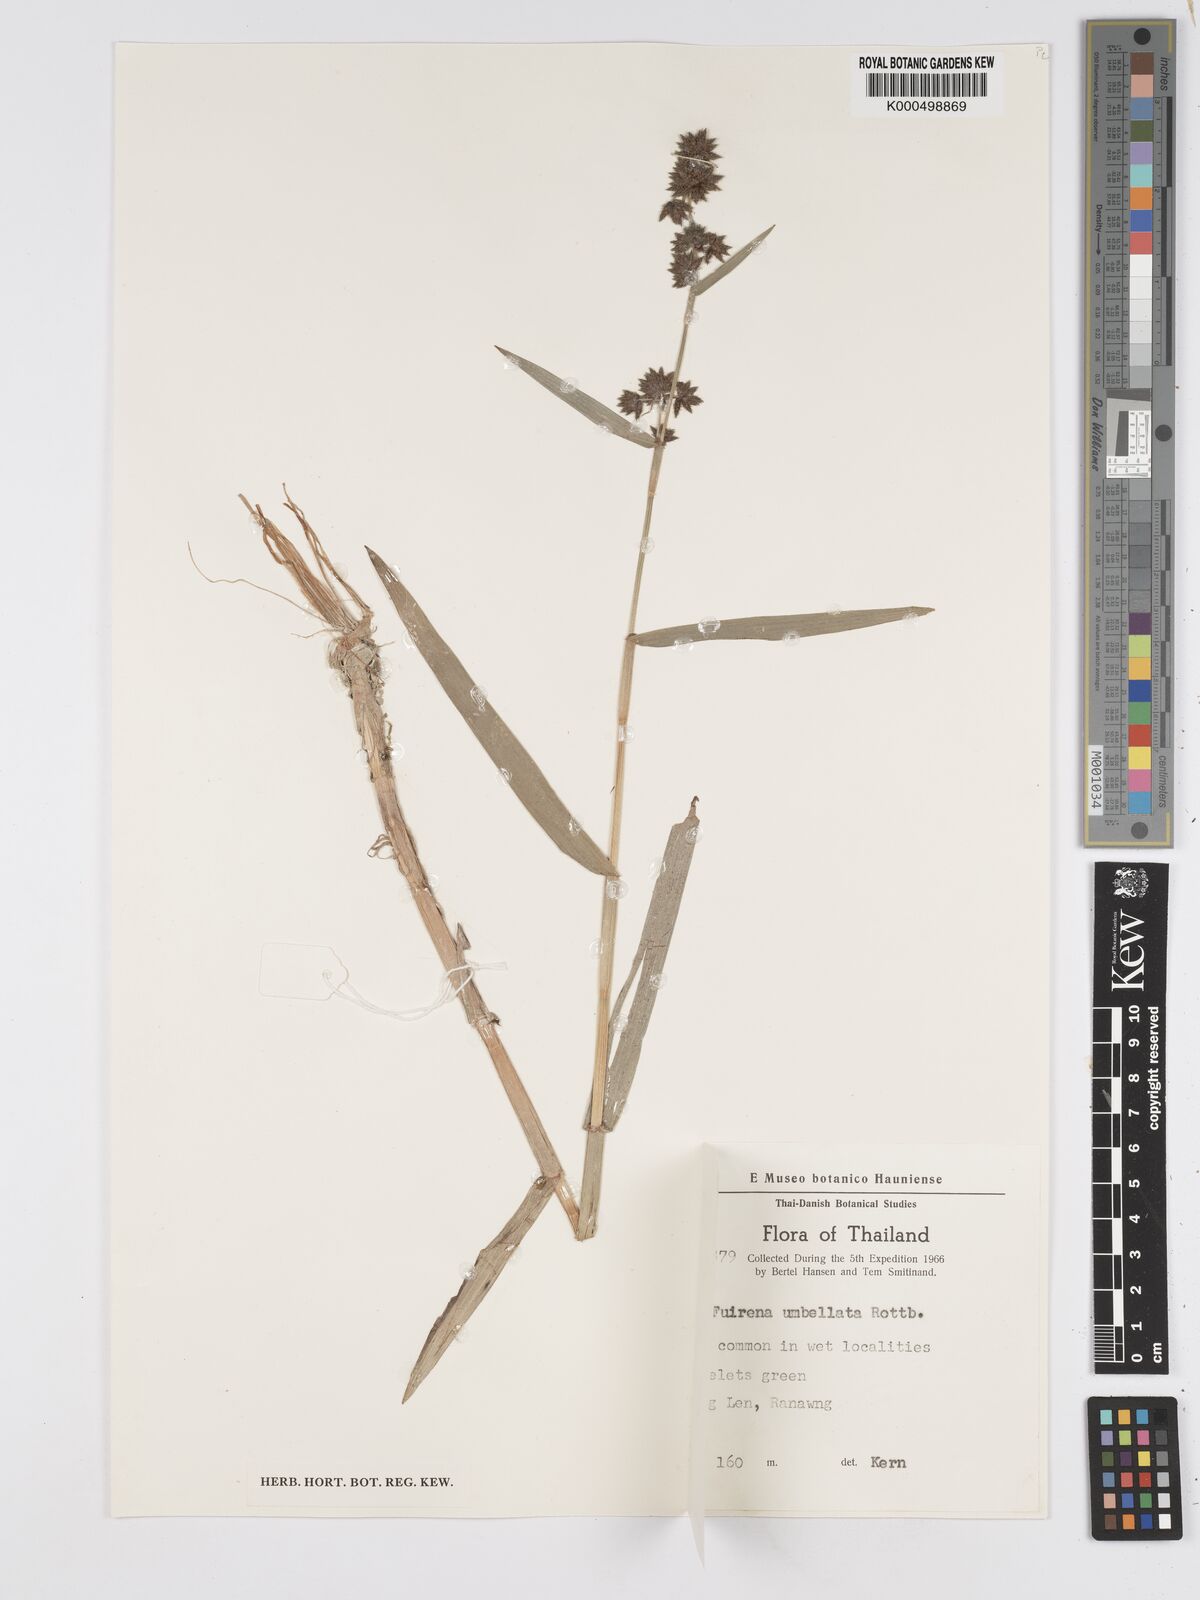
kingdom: Plantae
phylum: Tracheophyta
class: Liliopsida
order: Poales
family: Cyperaceae
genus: Fuirena
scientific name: Fuirena umbellata
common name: Yefen
